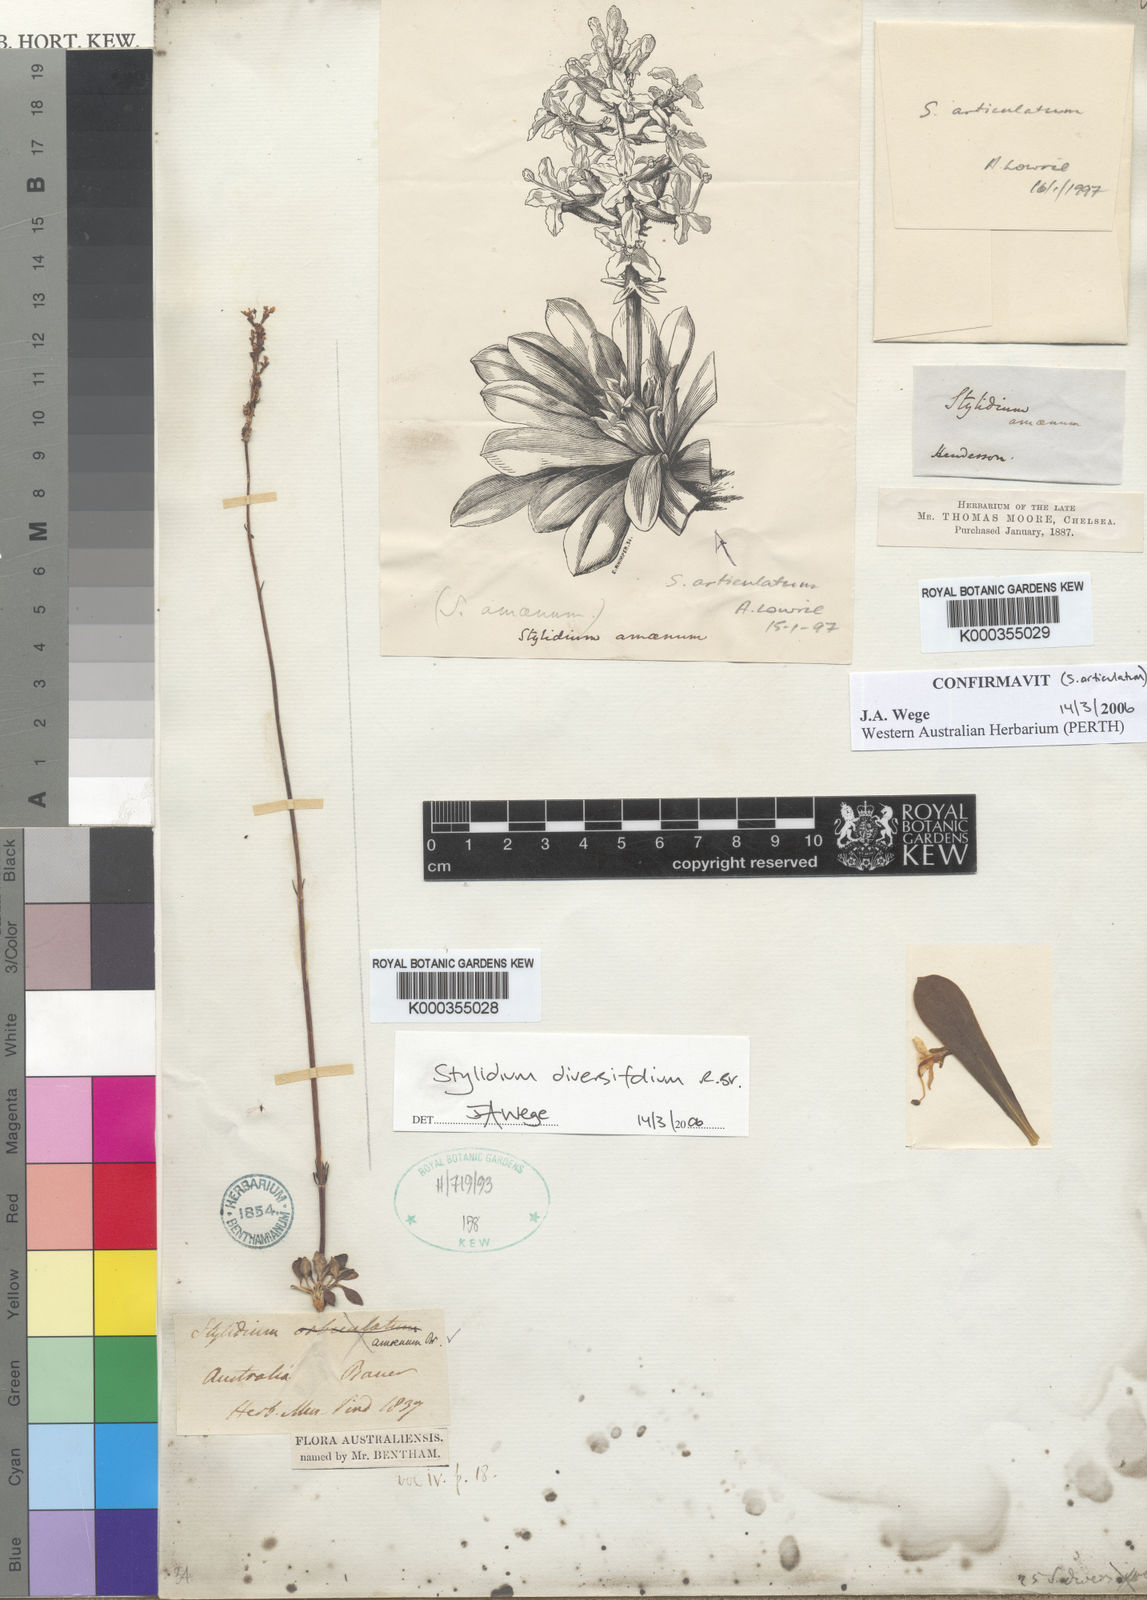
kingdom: Plantae
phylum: Tracheophyta
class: Magnoliopsida
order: Asterales
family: Stylidiaceae
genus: Stylidium
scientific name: Stylidium diversifolium
